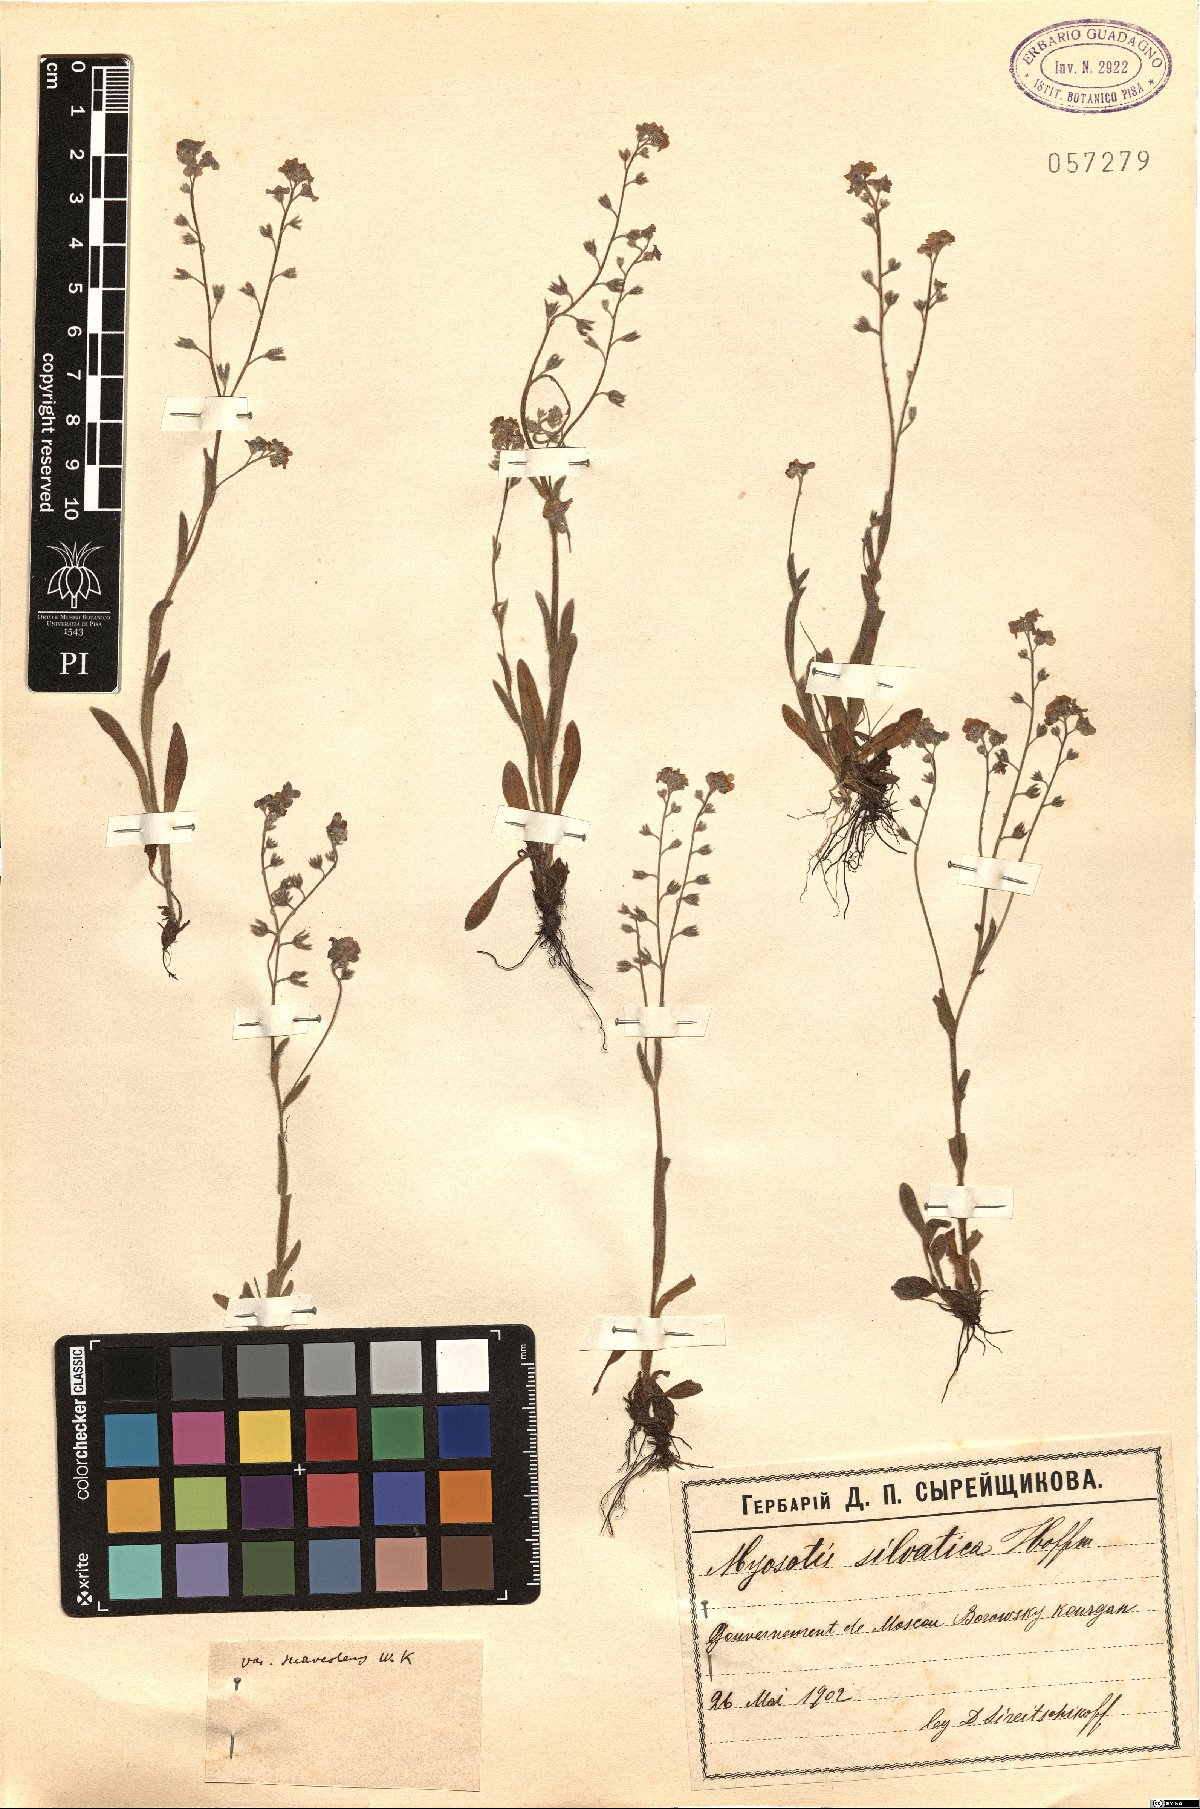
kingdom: Plantae
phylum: Tracheophyta
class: Magnoliopsida
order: Boraginales
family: Boraginaceae
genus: Myosotis
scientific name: Myosotis sylvatica
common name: Wood forget-me-not
